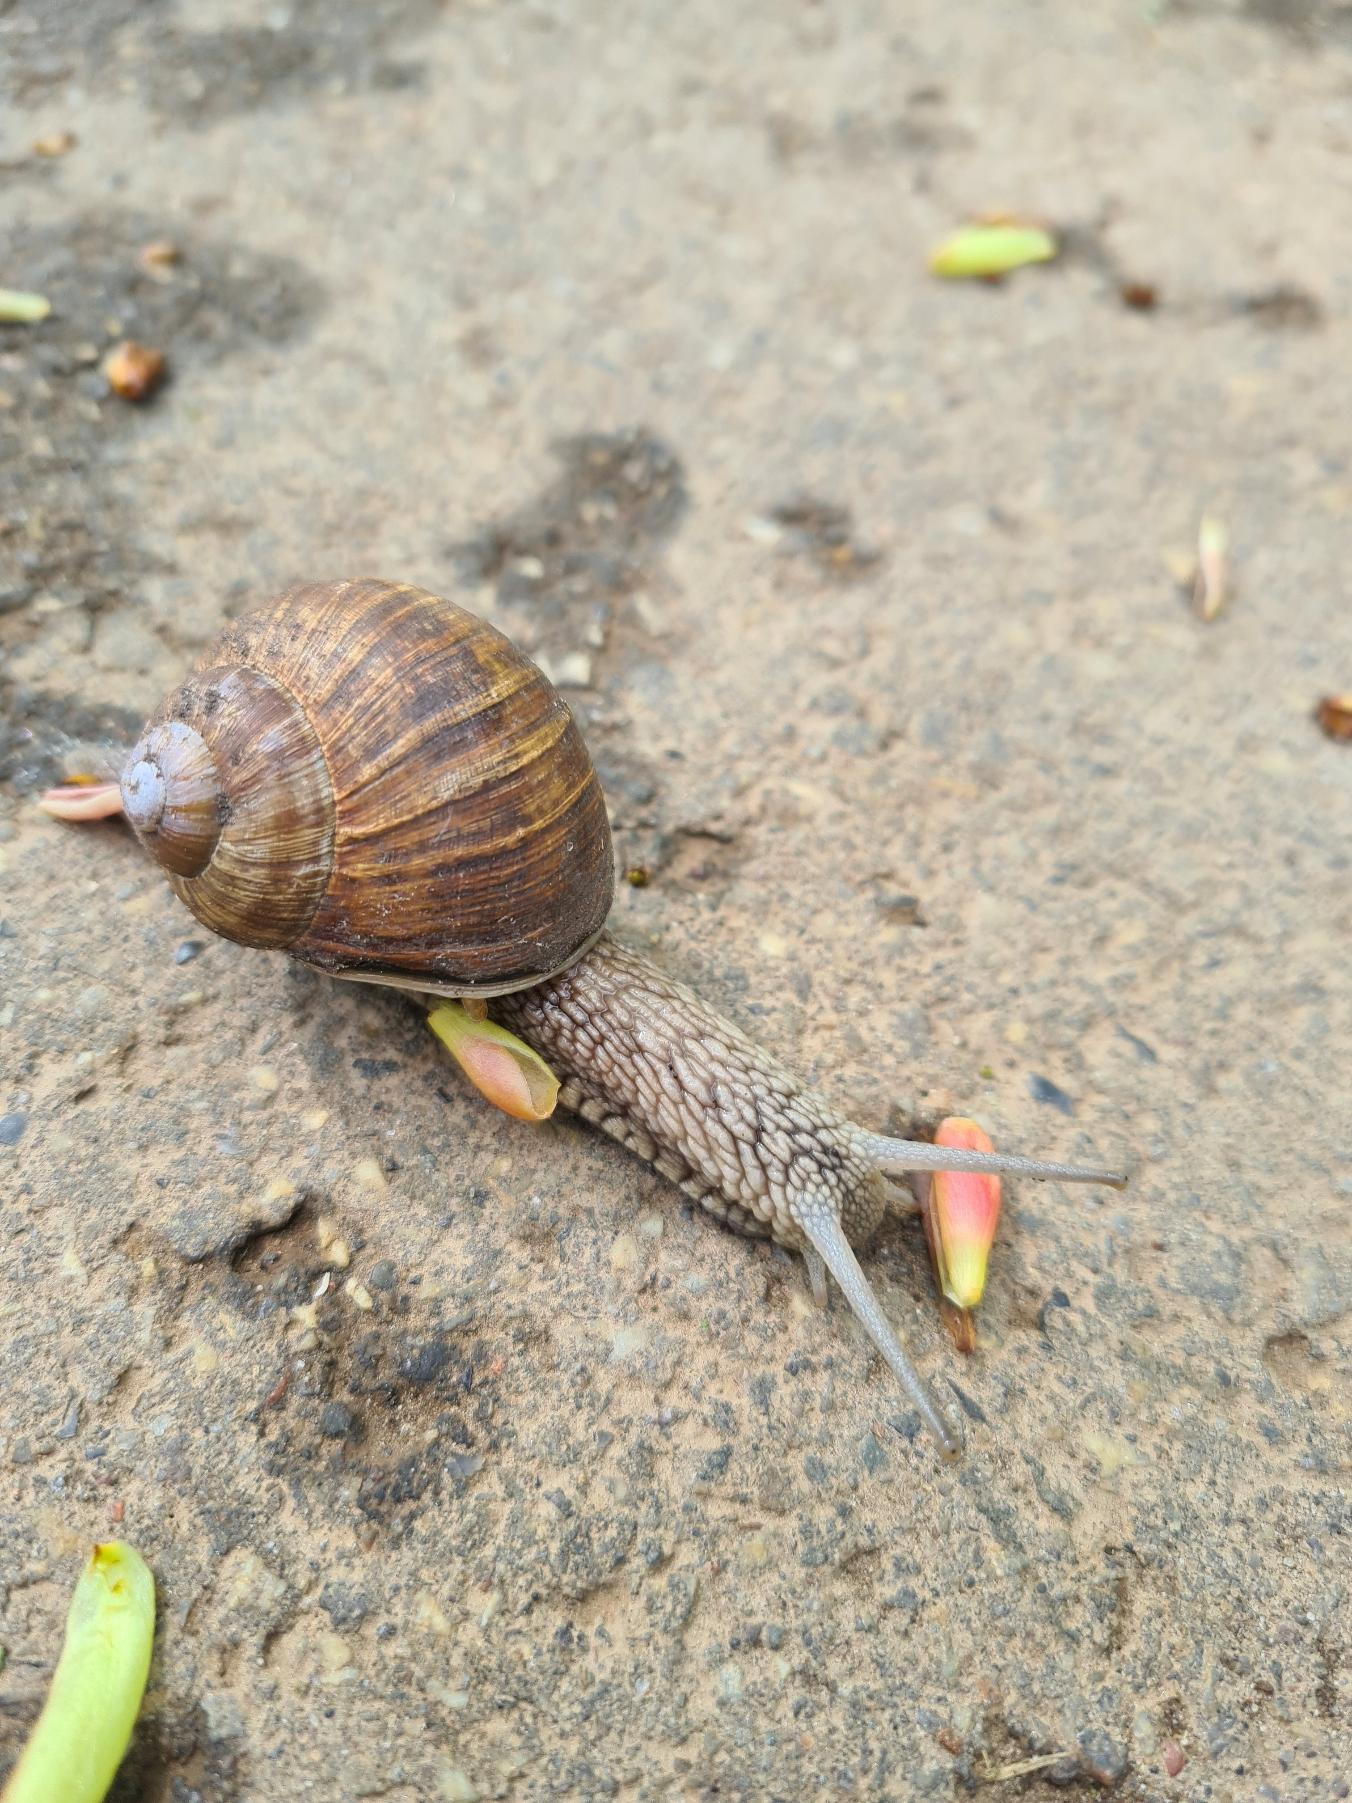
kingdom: Animalia
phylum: Mollusca
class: Gastropoda
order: Stylommatophora
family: Helicidae
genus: Helix
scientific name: Helix pomatia
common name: Vinbjergsnegl
